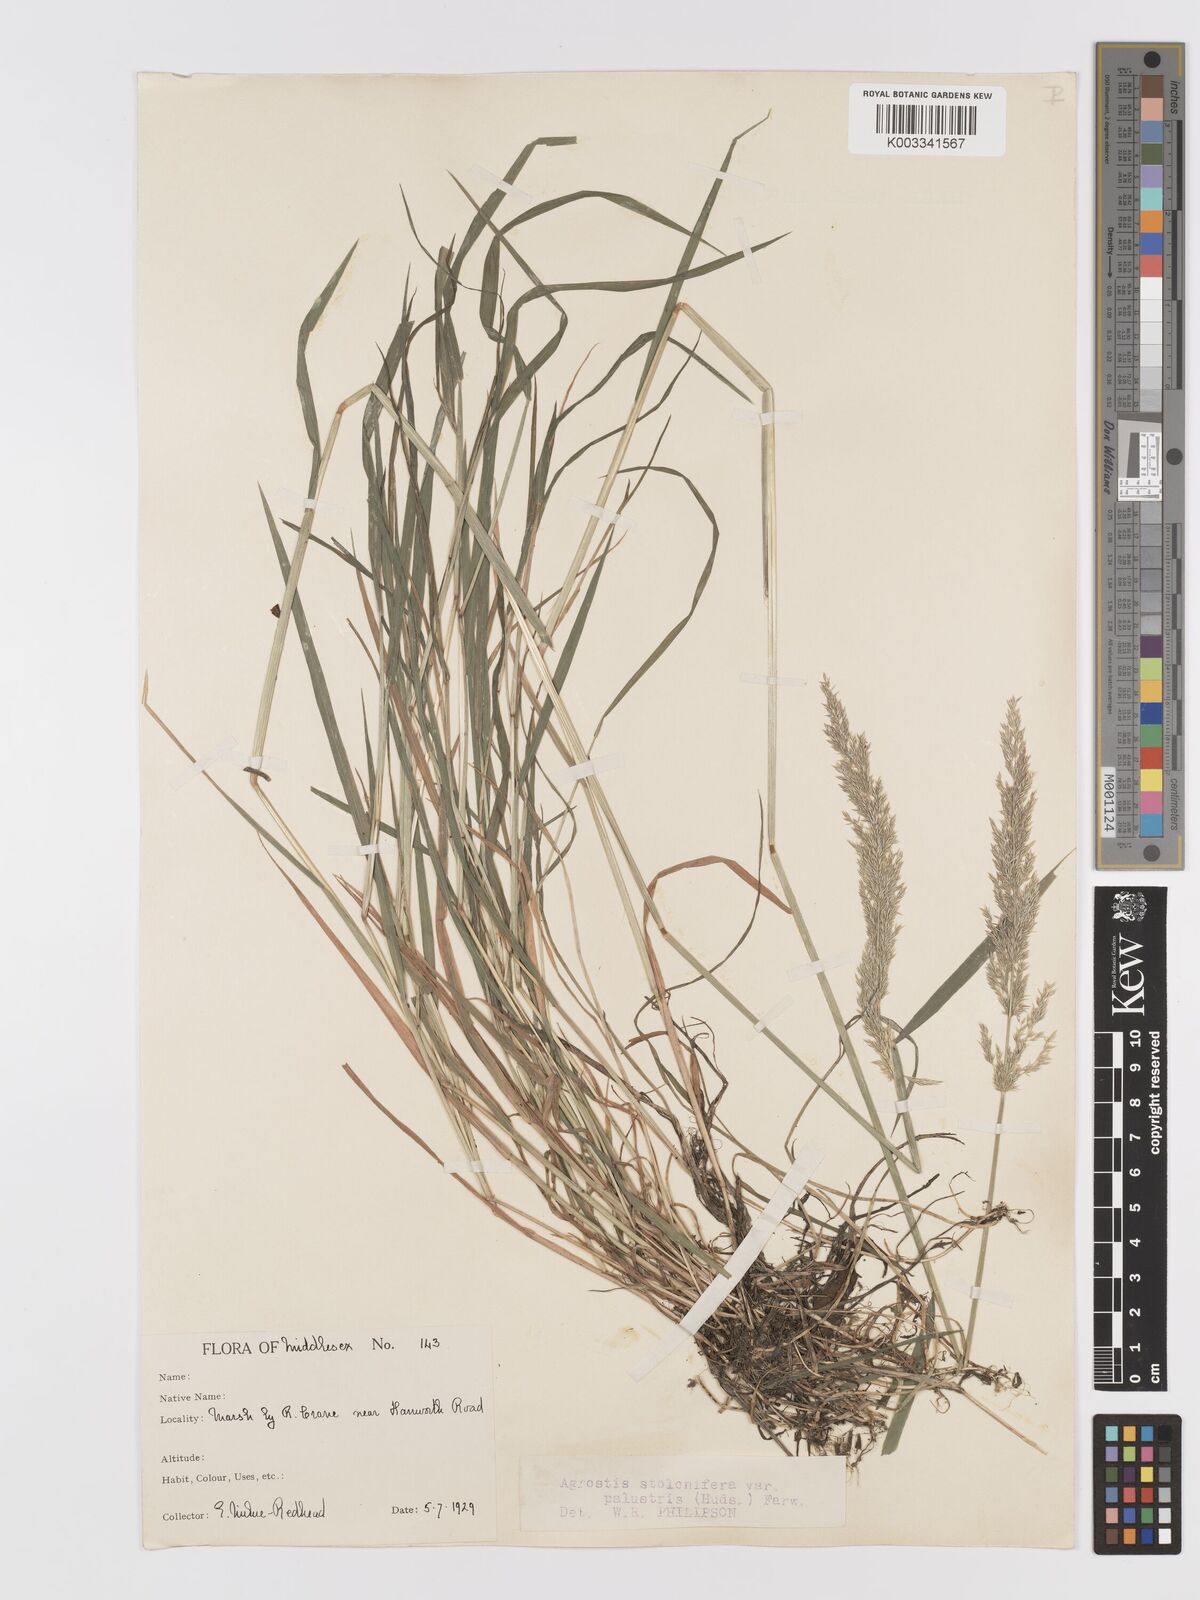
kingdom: Plantae
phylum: Tracheophyta
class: Liliopsida
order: Poales
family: Poaceae
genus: Agrostis
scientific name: Agrostis stolonifera
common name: Creeping bentgrass
